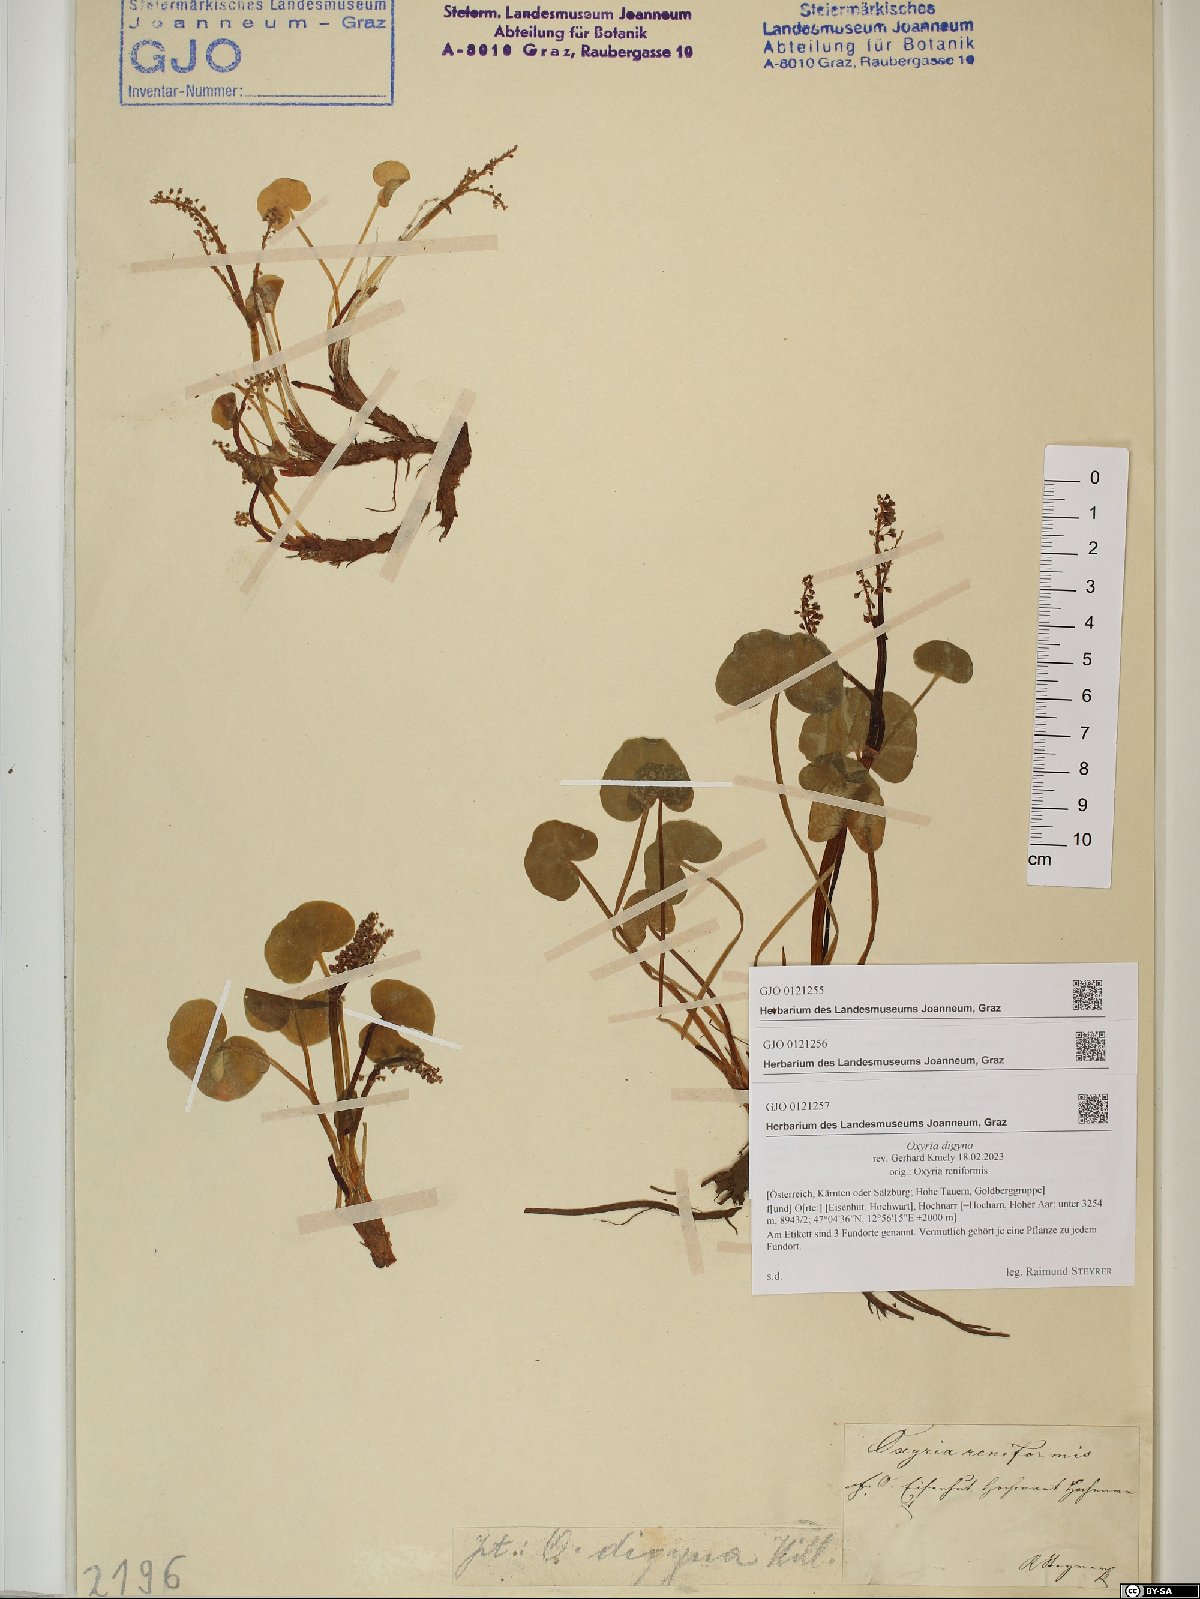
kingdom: Plantae
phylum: Tracheophyta
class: Magnoliopsida
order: Caryophyllales
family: Polygonaceae
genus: Oxyria
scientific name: Oxyria digyna
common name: Alpine mountain-sorrel
